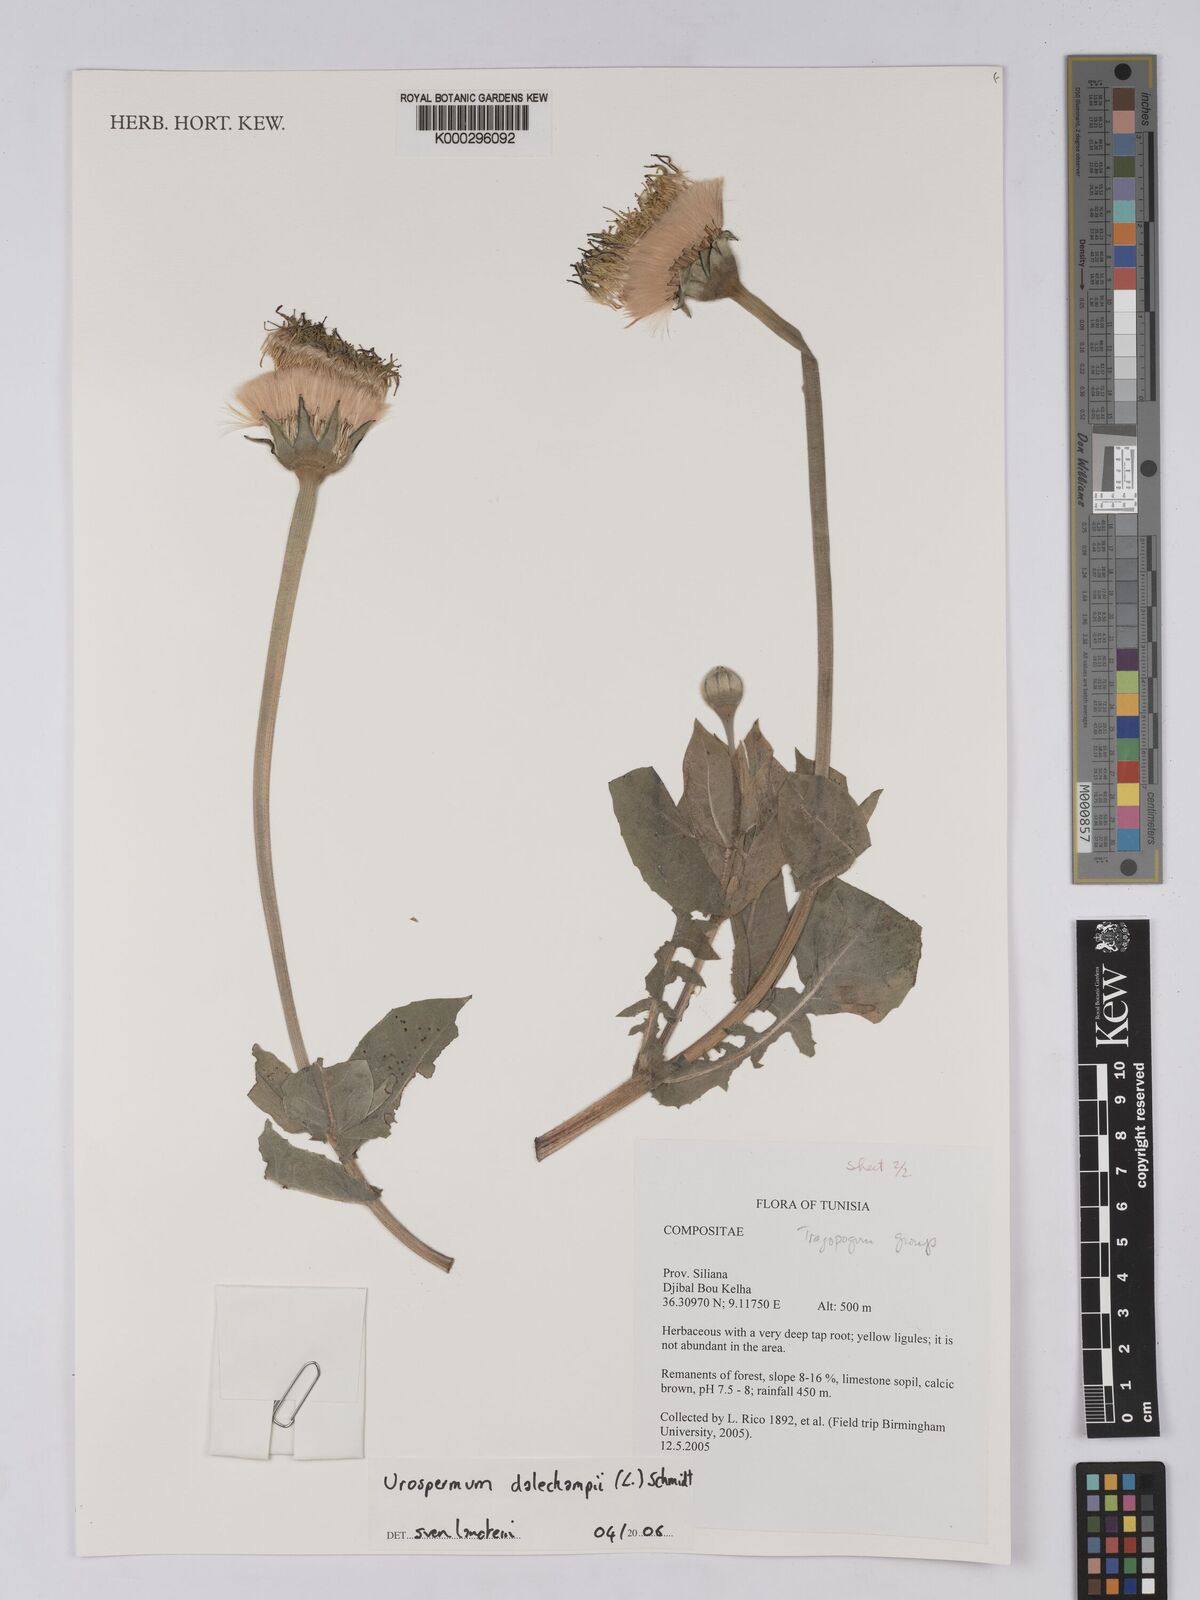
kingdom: Plantae
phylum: Tracheophyta
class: Magnoliopsida
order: Asterales
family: Asteraceae
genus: Urospermum
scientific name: Urospermum dalechampii
